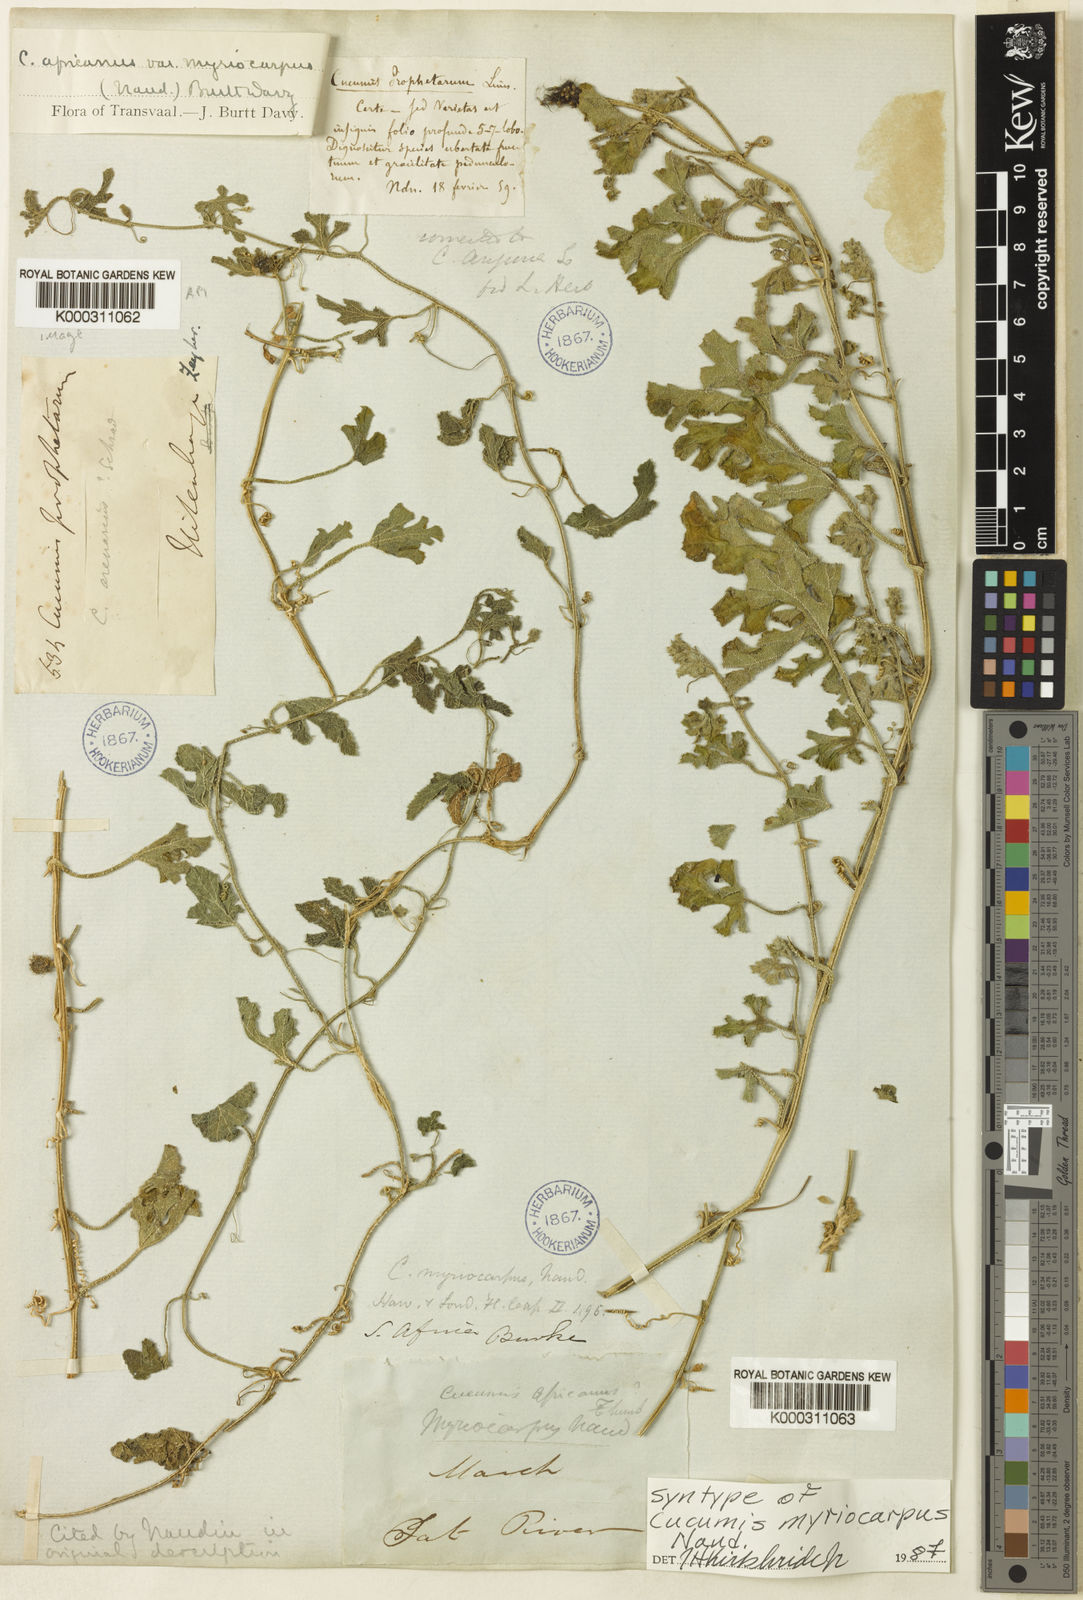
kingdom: Plantae
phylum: Tracheophyta
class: Magnoliopsida
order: Cucurbitales
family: Cucurbitaceae
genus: Cucumis
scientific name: Cucumis myriocarpus
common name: Gooseberry cucumber
